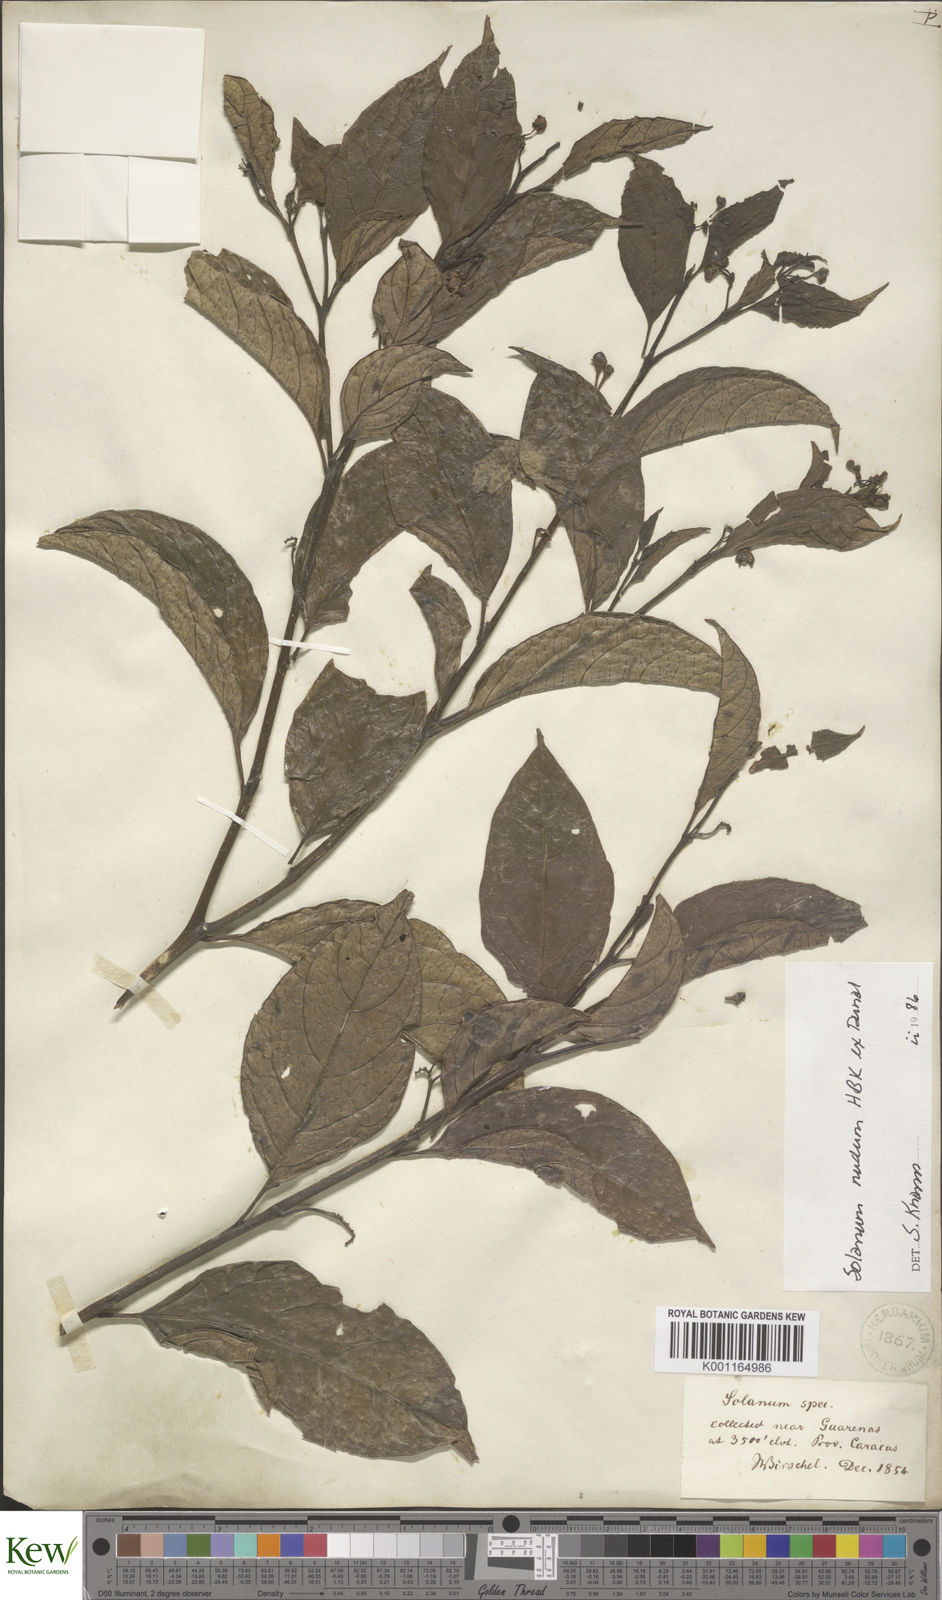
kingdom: Plantae
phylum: Tracheophyta
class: Magnoliopsida
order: Solanales
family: Solanaceae
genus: Solanum
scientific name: Solanum nudum
